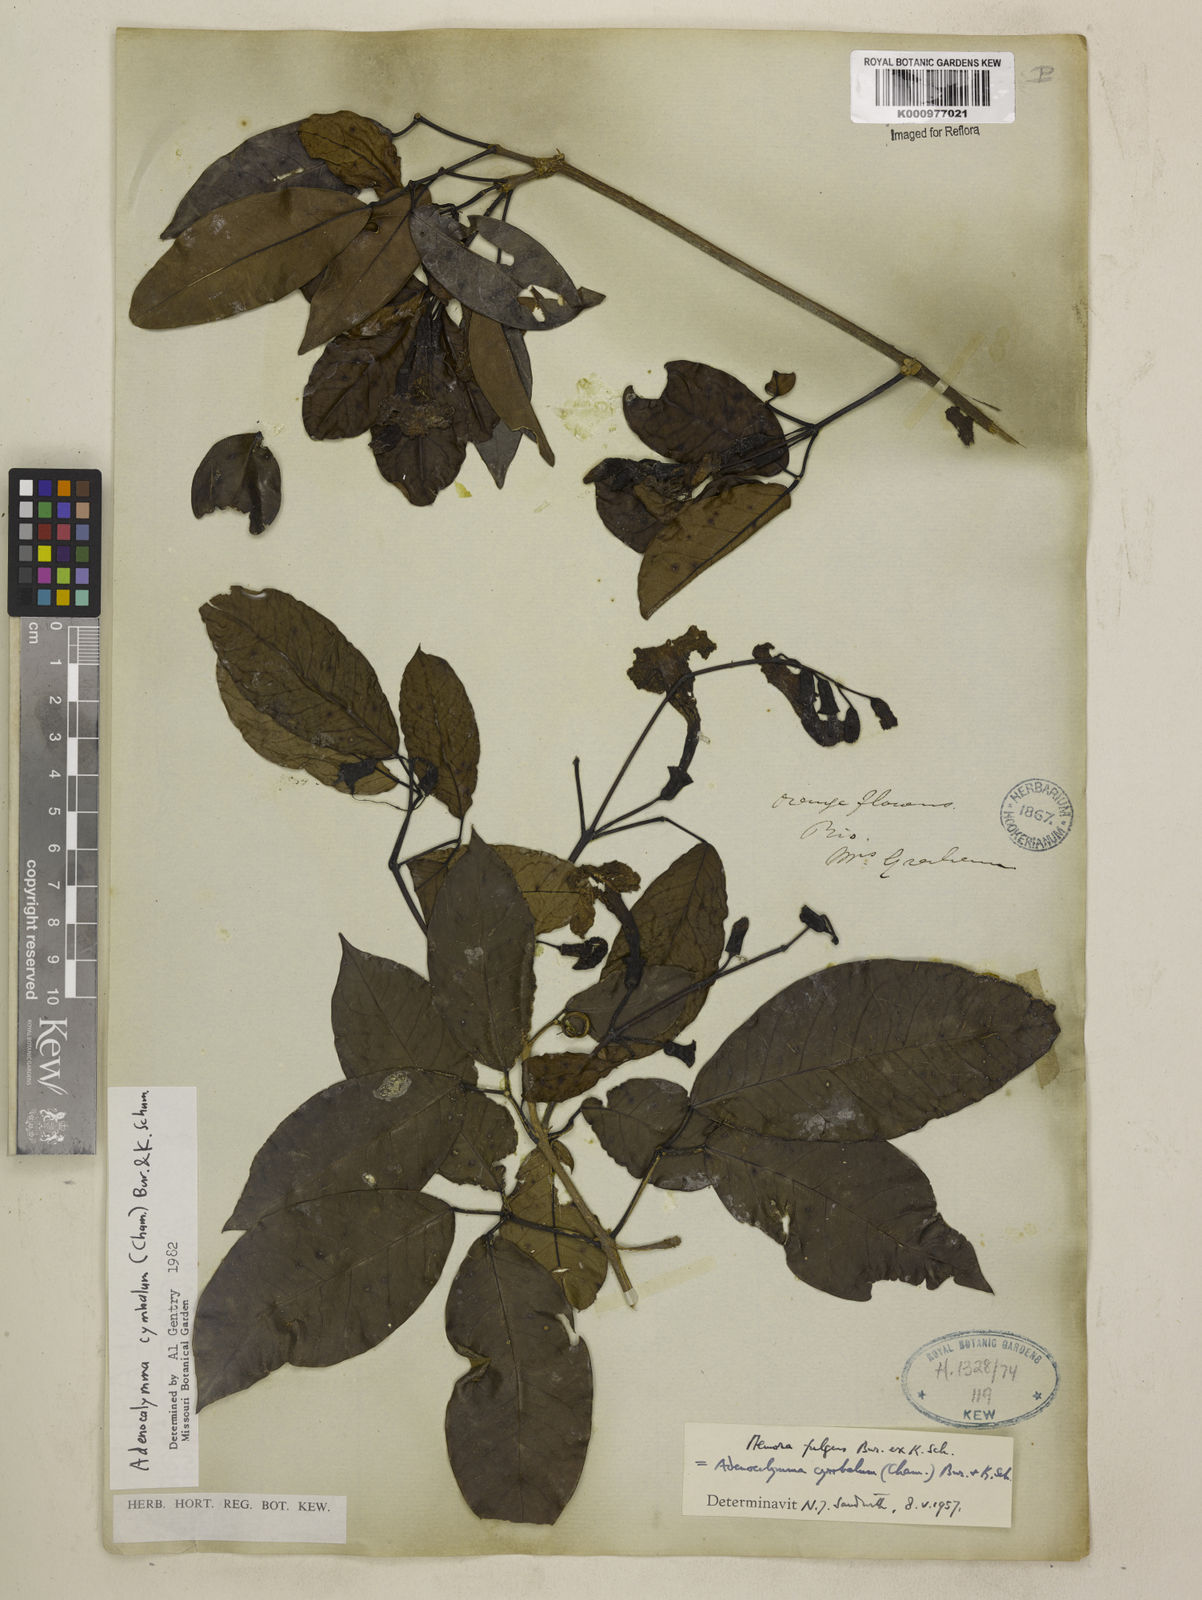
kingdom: Plantae
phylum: Tracheophyta
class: Magnoliopsida
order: Lamiales
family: Bignoniaceae
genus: Adenocalymma
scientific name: Adenocalymma cymbalum
